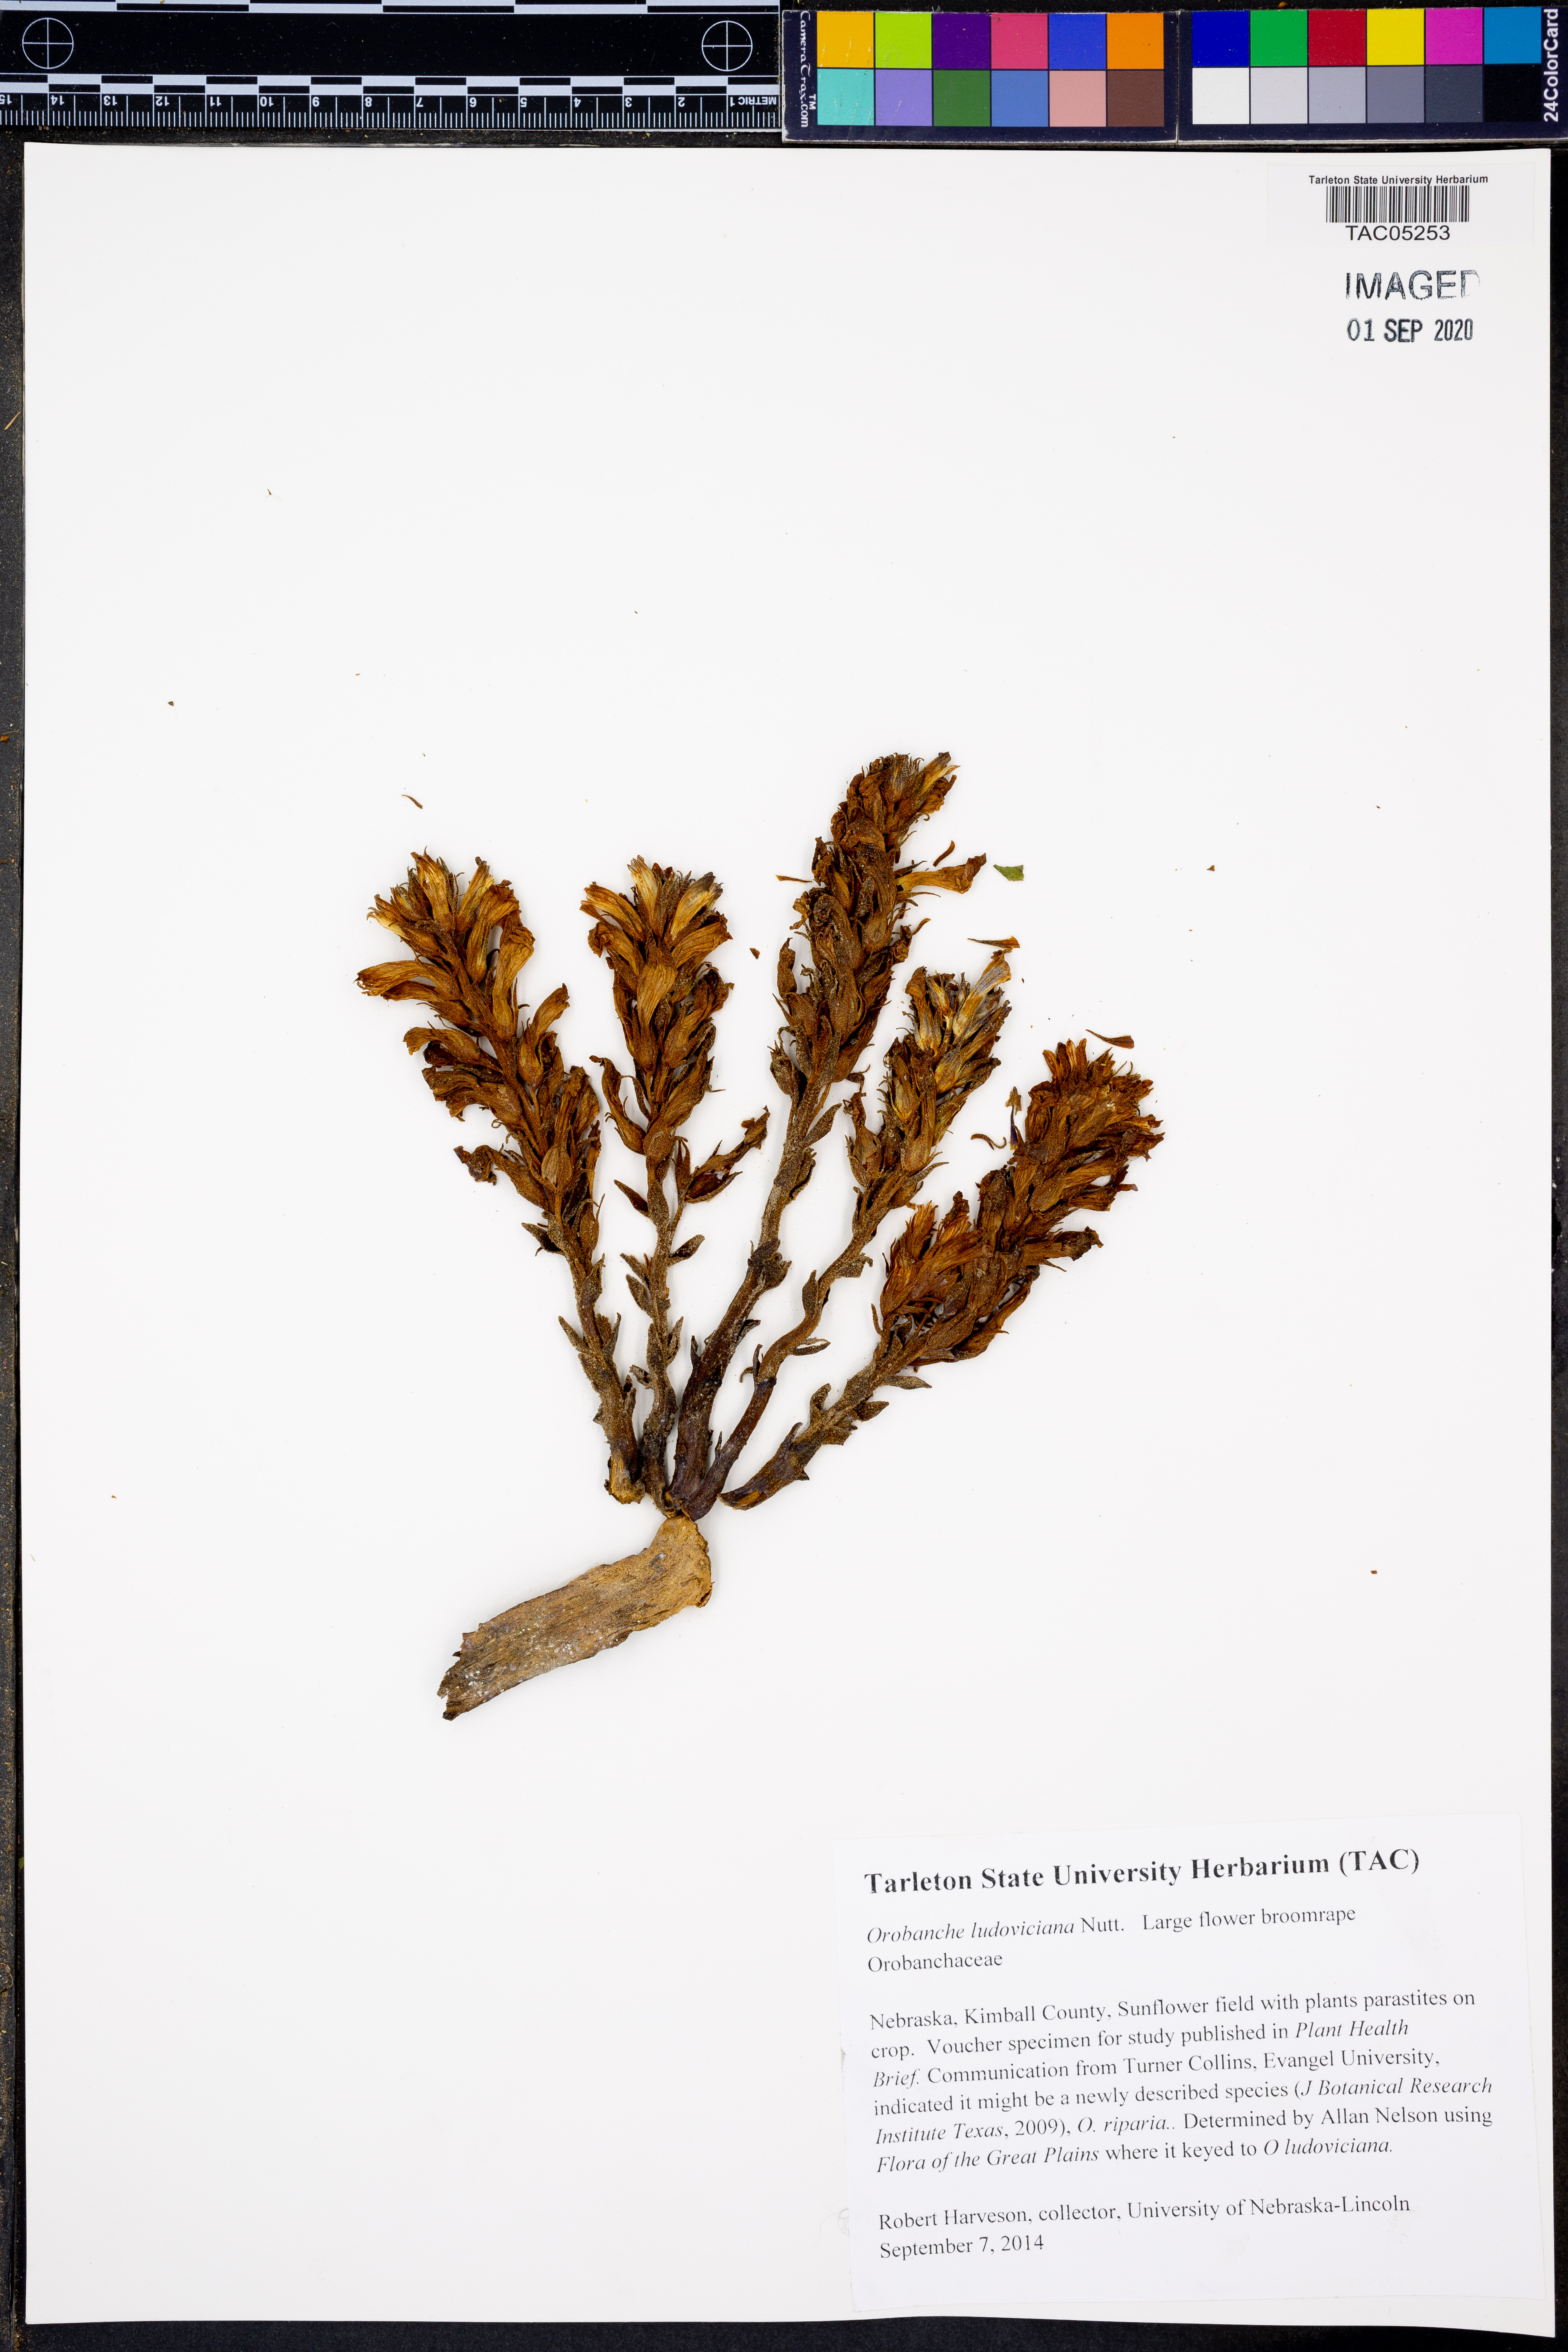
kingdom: Plantae
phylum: Tracheophyta
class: Magnoliopsida
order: Lamiales
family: Orobanchaceae
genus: Aphyllon
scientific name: Aphyllon ludovicianum
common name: Louisiana broomrape
